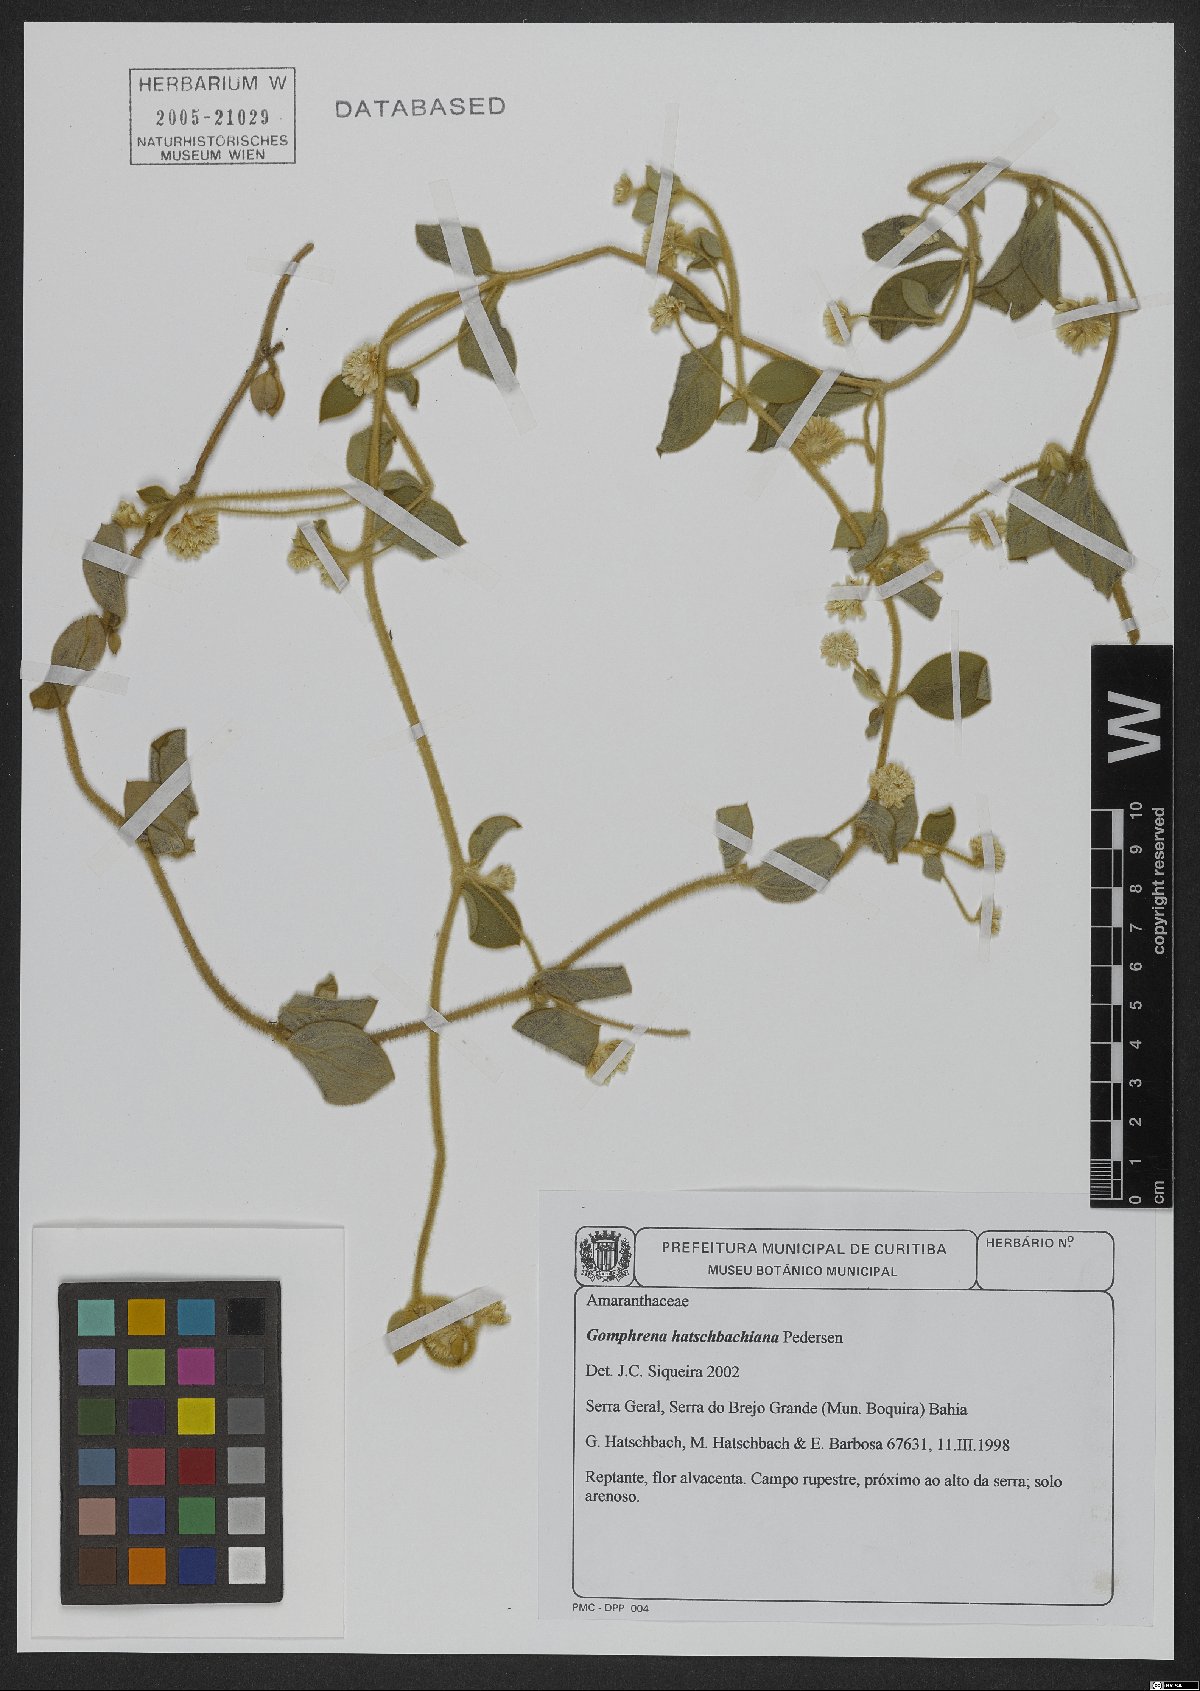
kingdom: Plantae
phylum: Tracheophyta
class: Magnoliopsida
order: Caryophyllales
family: Amaranthaceae
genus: Gomphrena
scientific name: Gomphrena hatschbachiana
